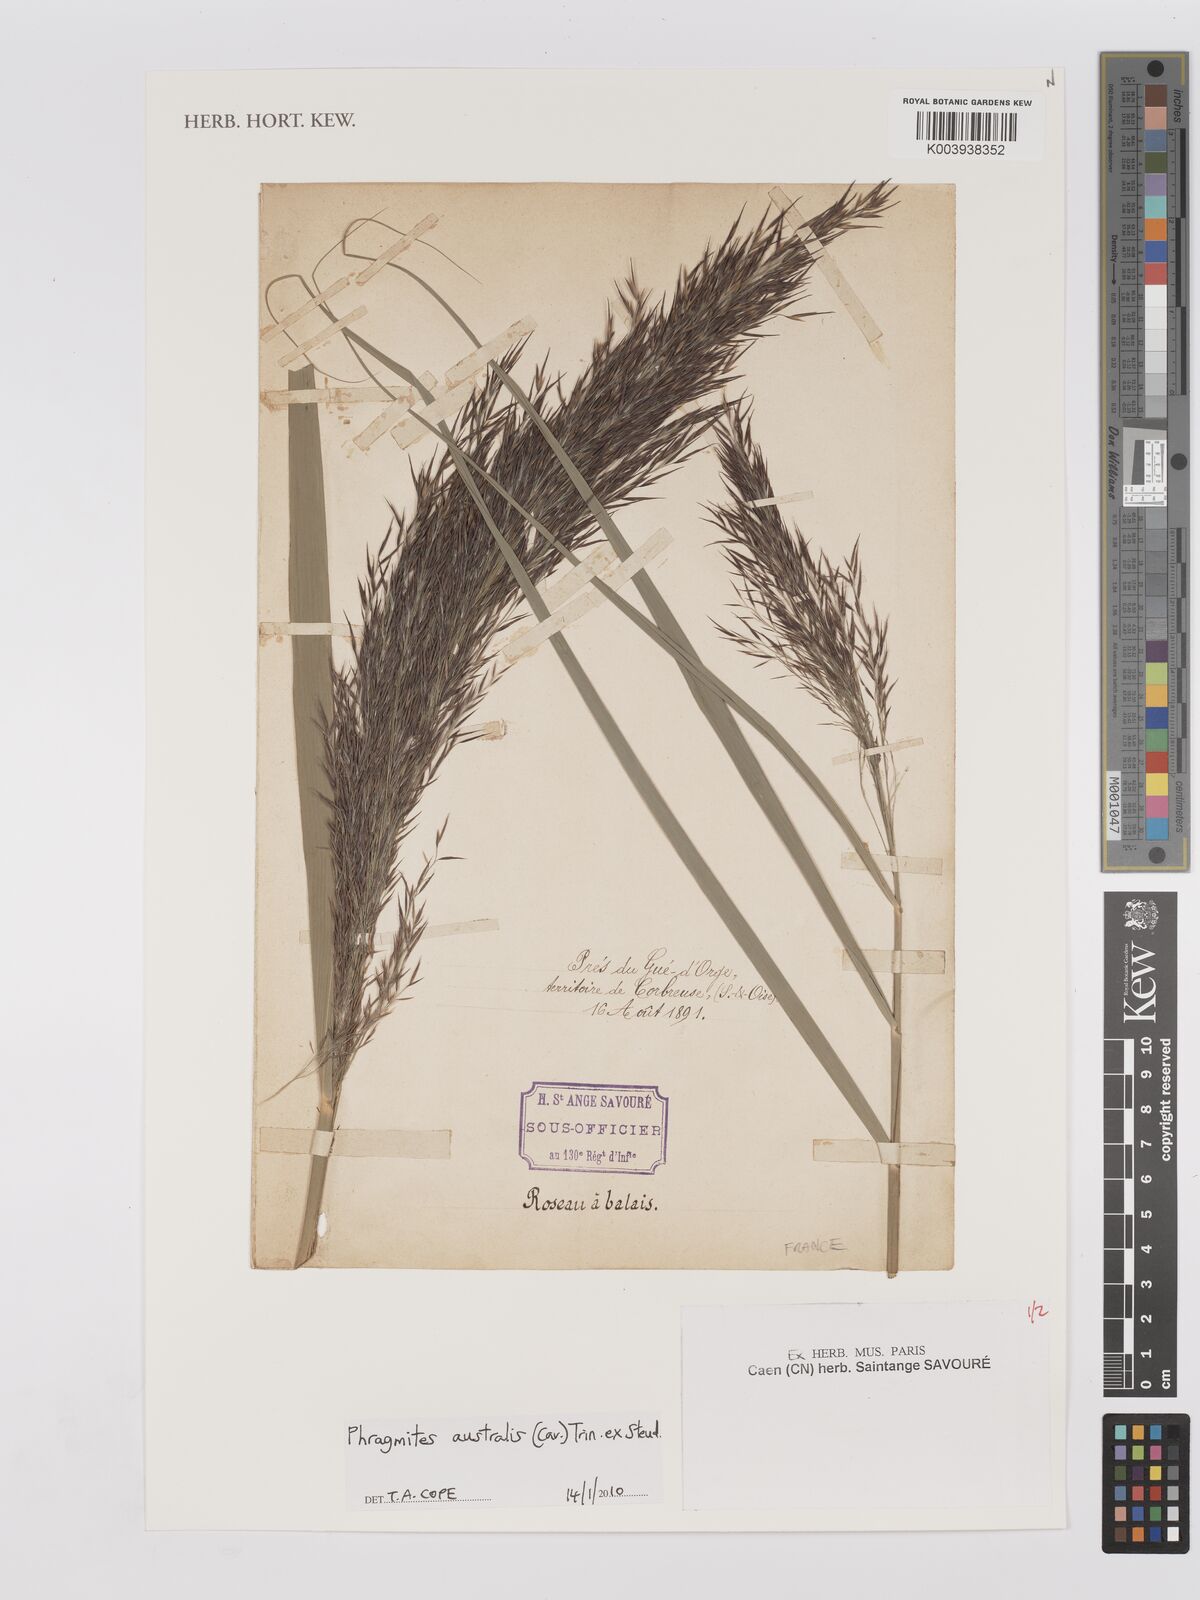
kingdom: Plantae
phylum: Tracheophyta
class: Liliopsida
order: Poales
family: Poaceae
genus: Phragmites
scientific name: Phragmites australis
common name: Common reed
